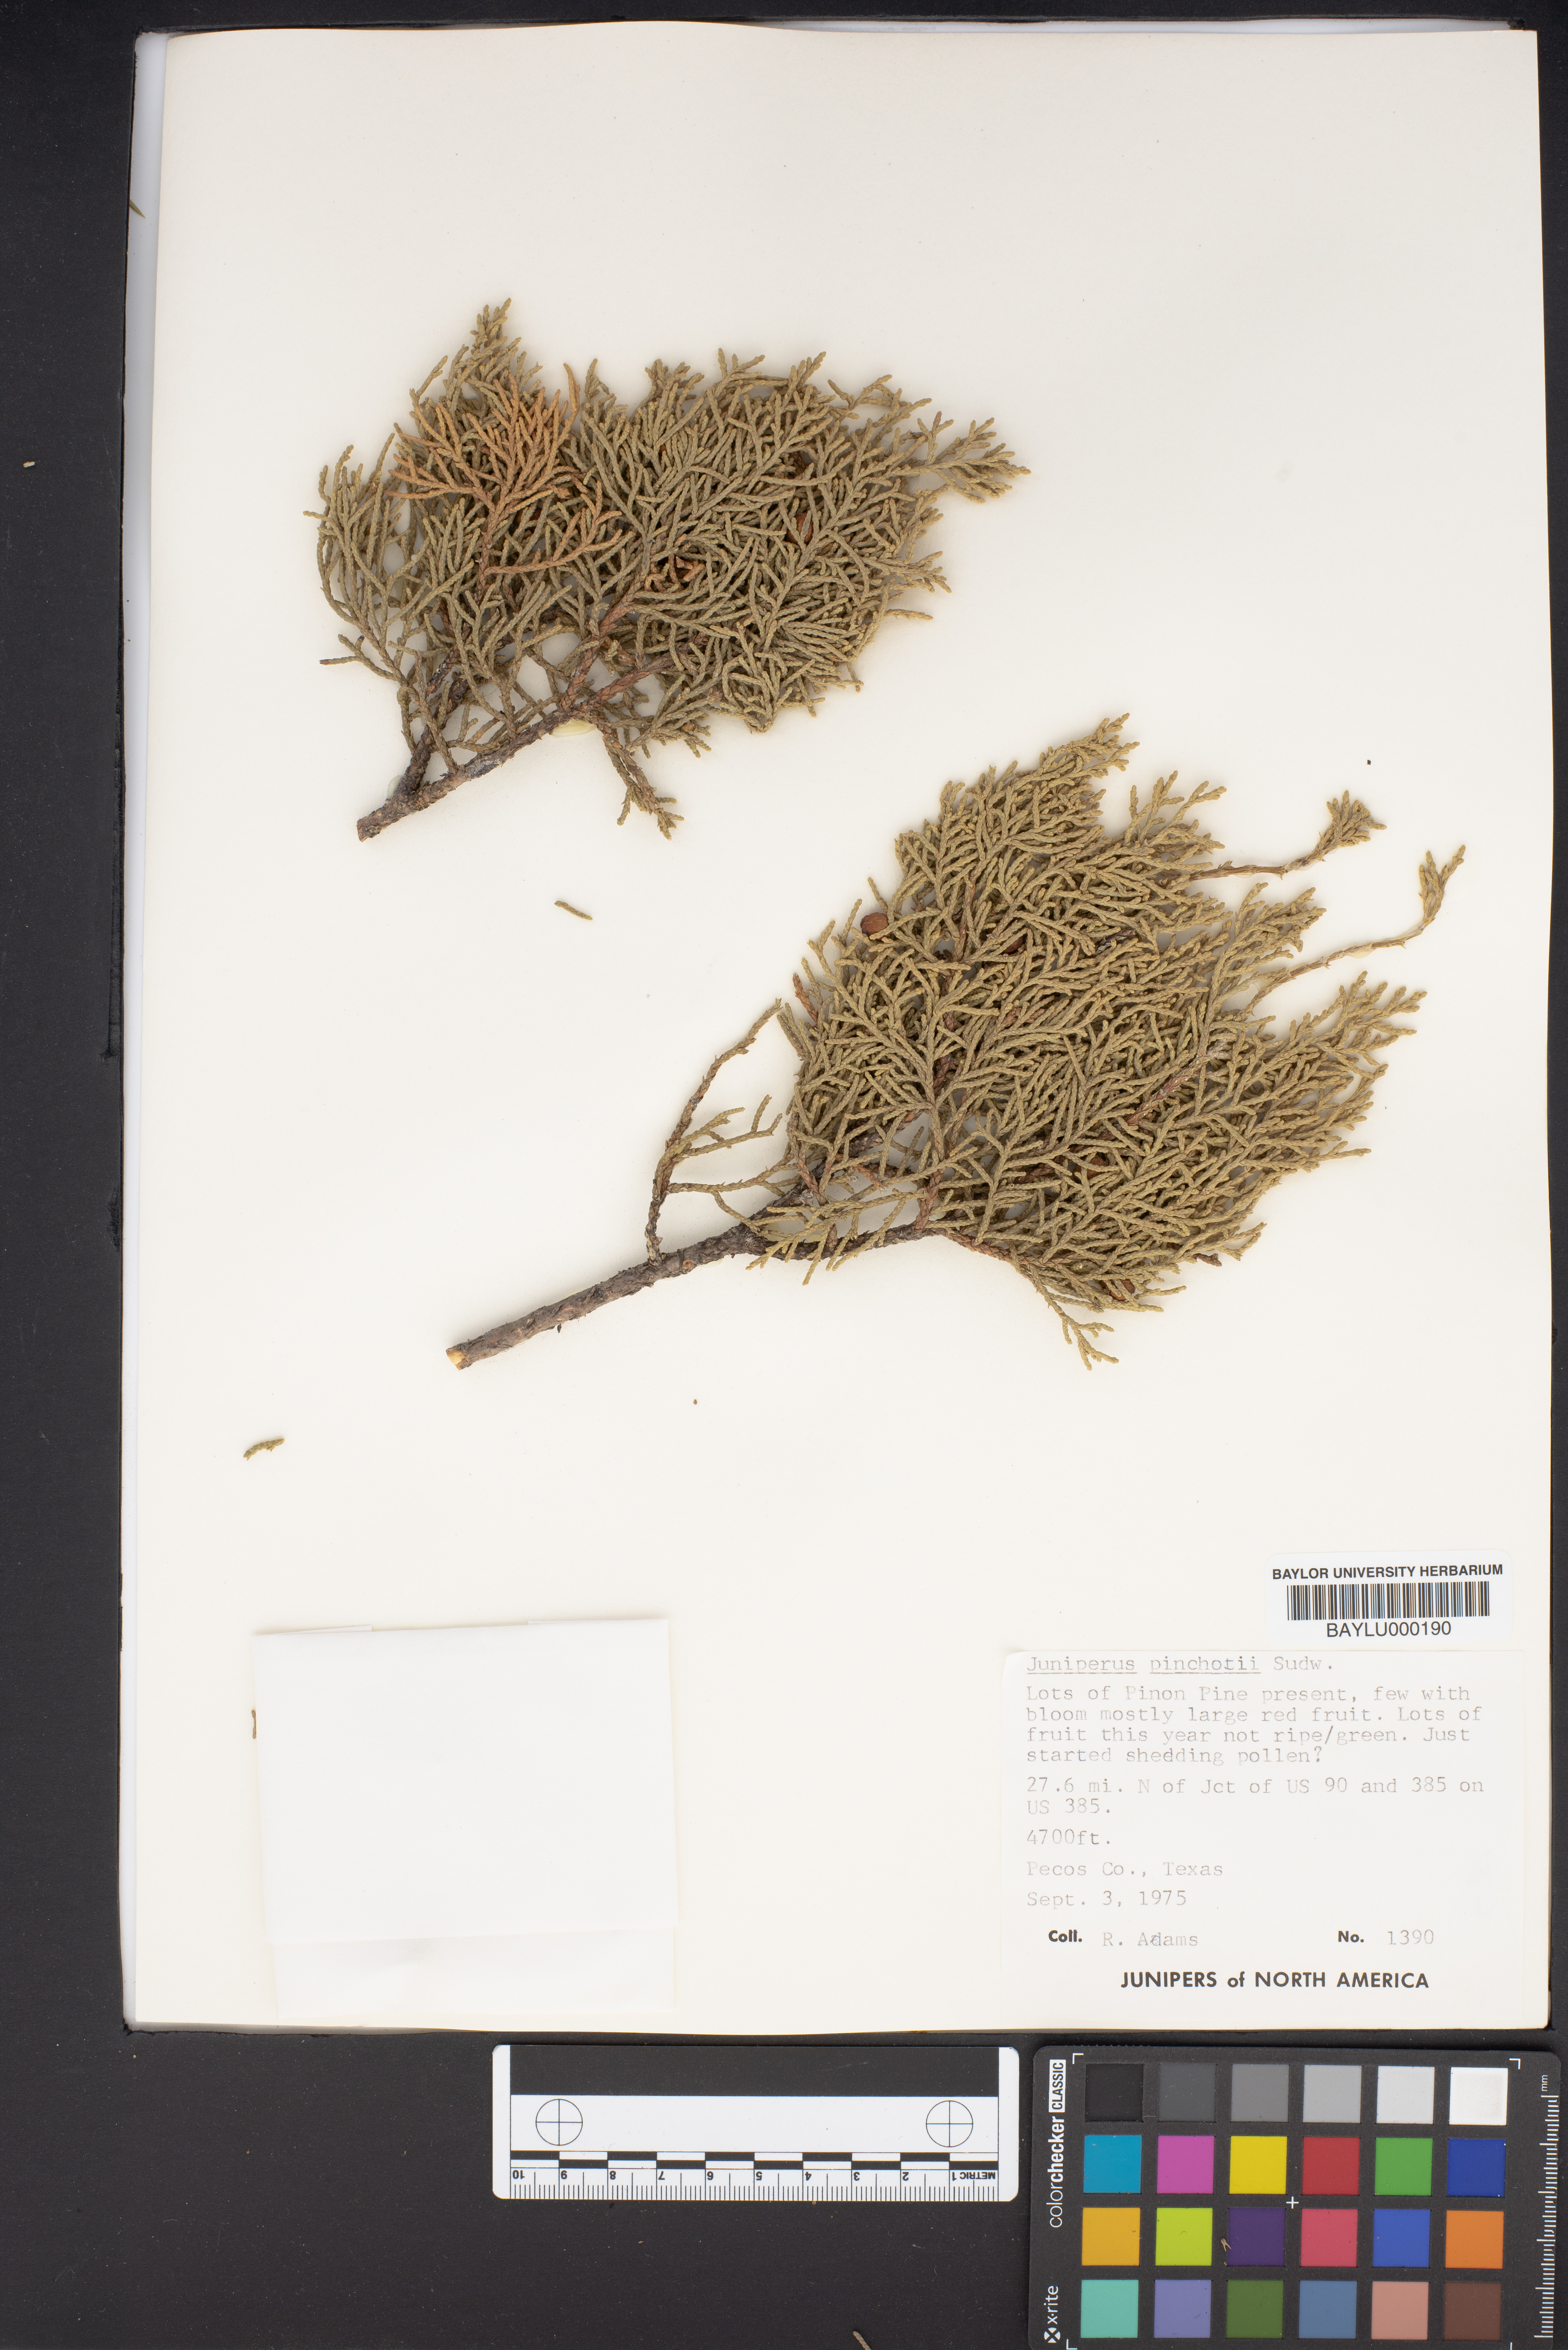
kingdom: Plantae
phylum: Tracheophyta
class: Pinopsida
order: Pinales
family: Cupressaceae
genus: Juniperus
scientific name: Juniperus pinchotii
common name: Pinchot juniper
